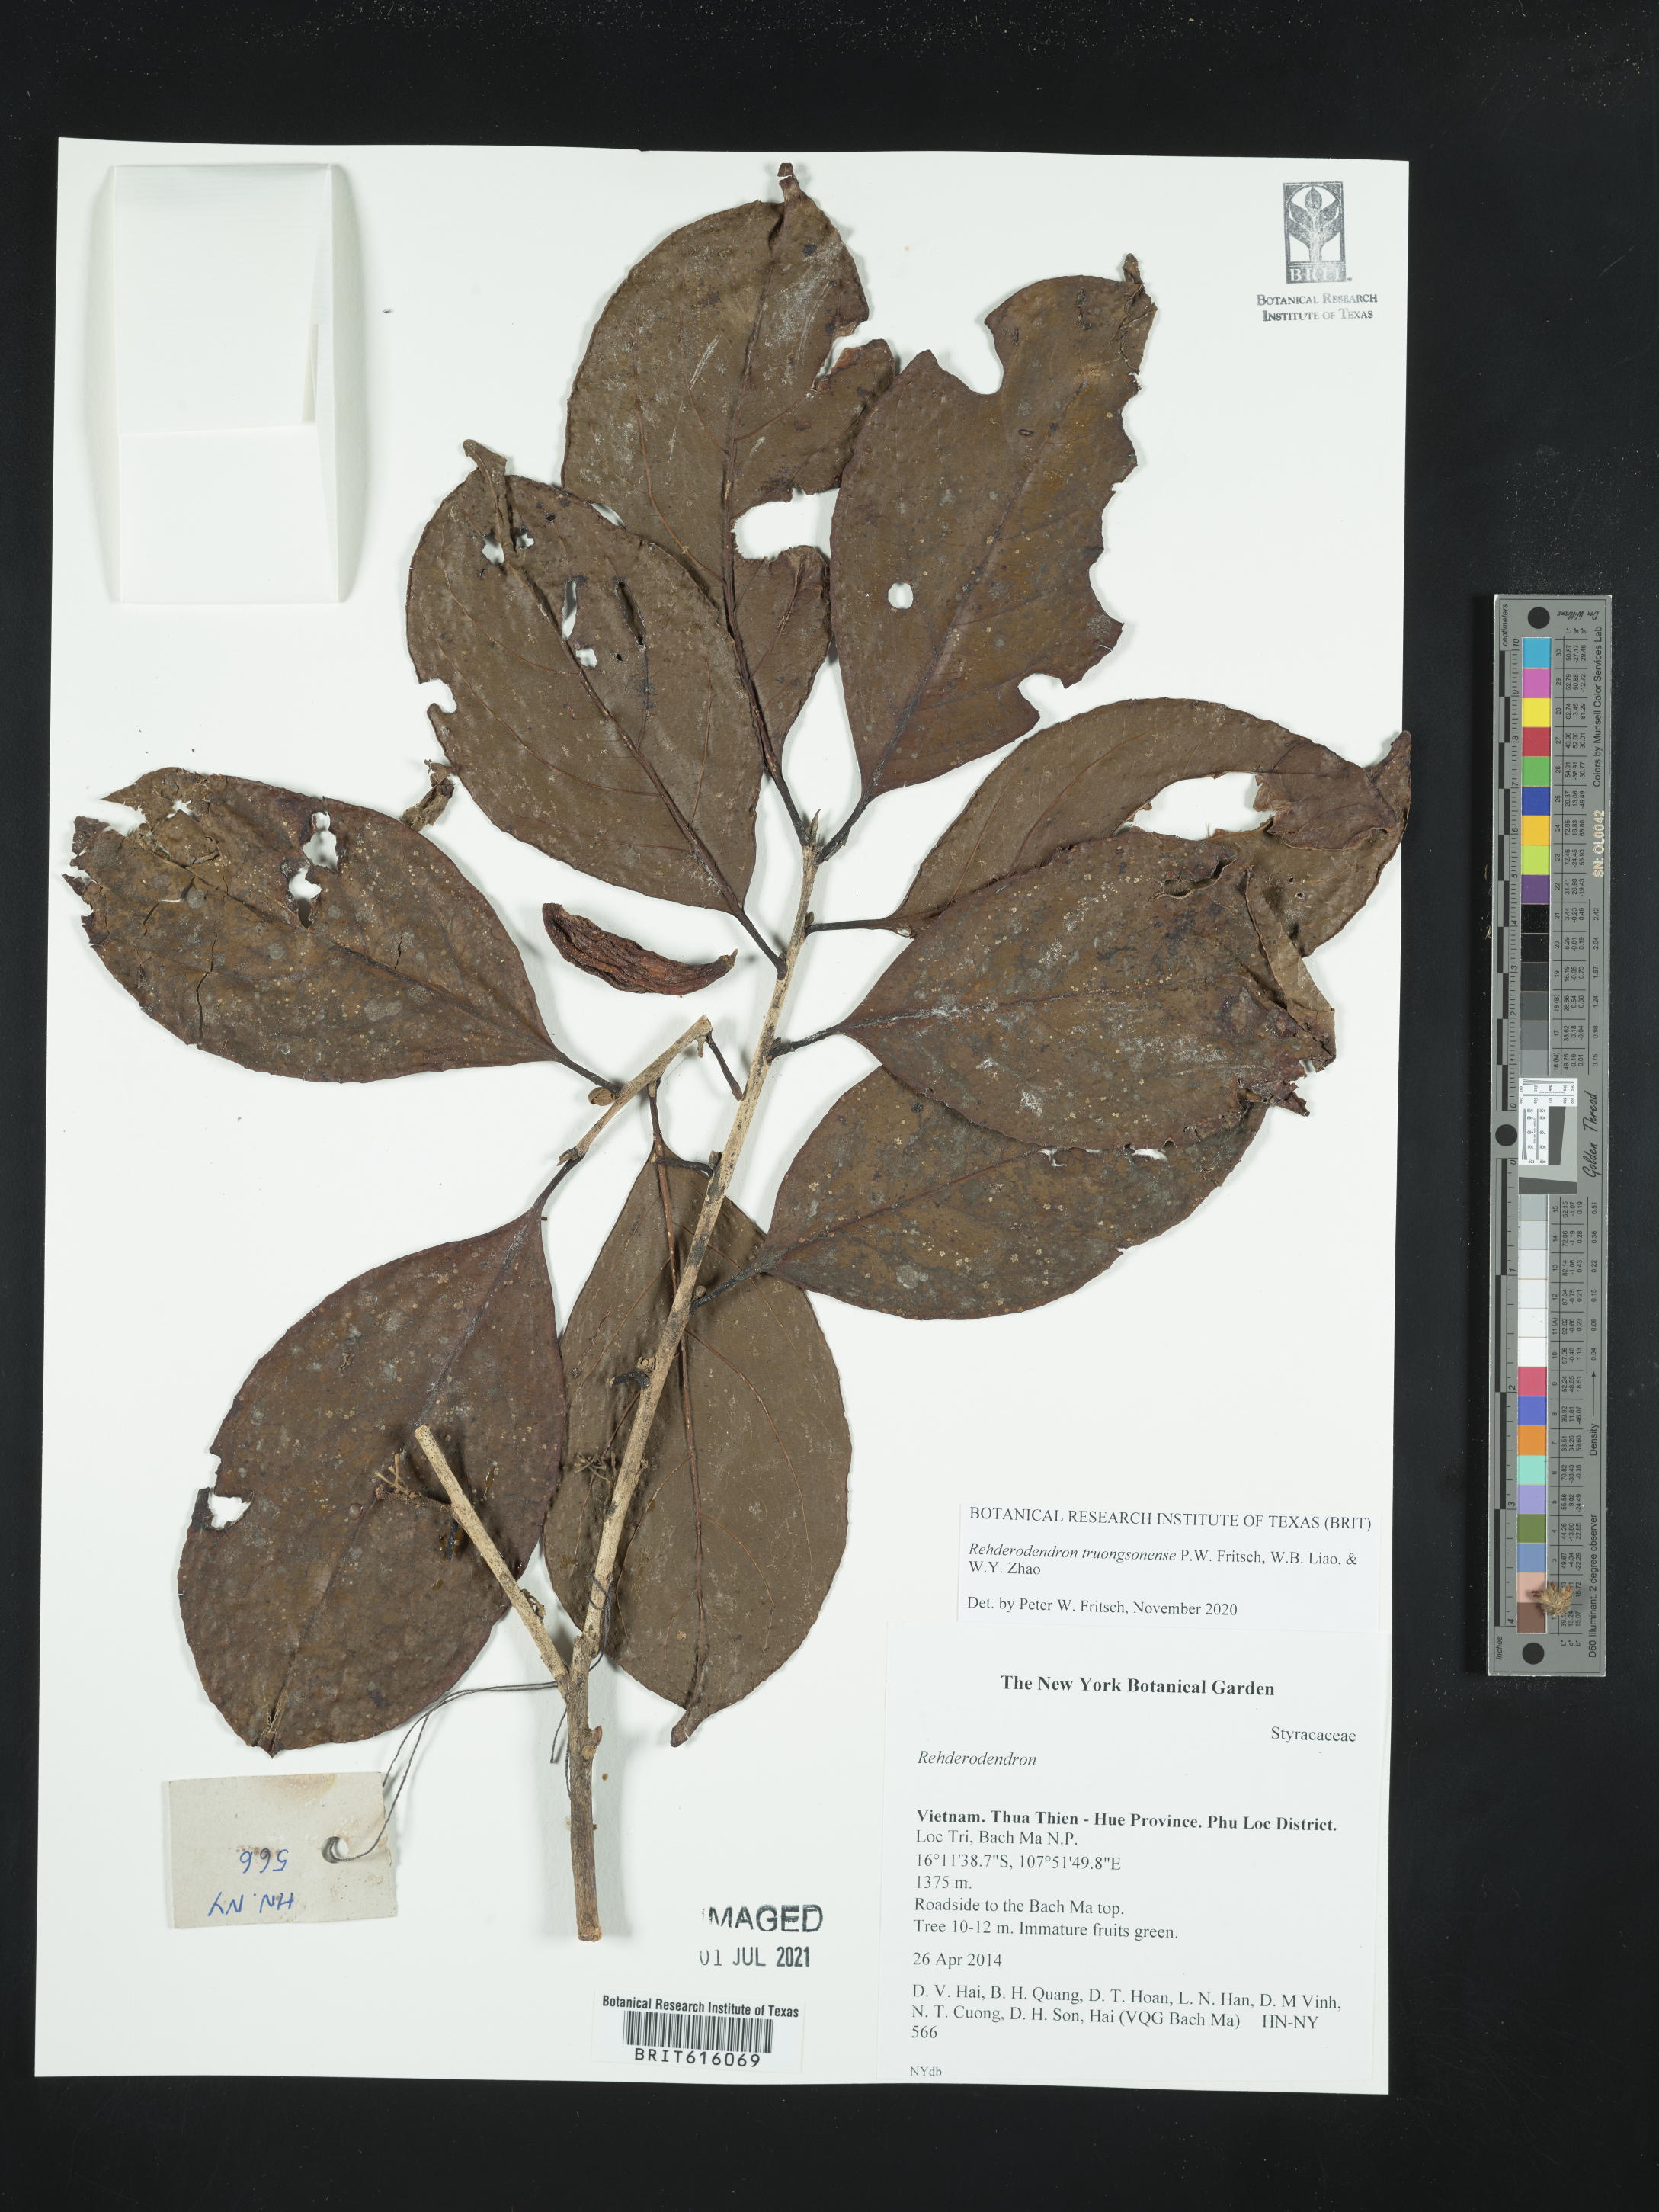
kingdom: Plantae
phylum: Tracheophyta
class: Magnoliopsida
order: Ericales
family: Styracaceae
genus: Rehderodendron
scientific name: Rehderodendron truongsonense
